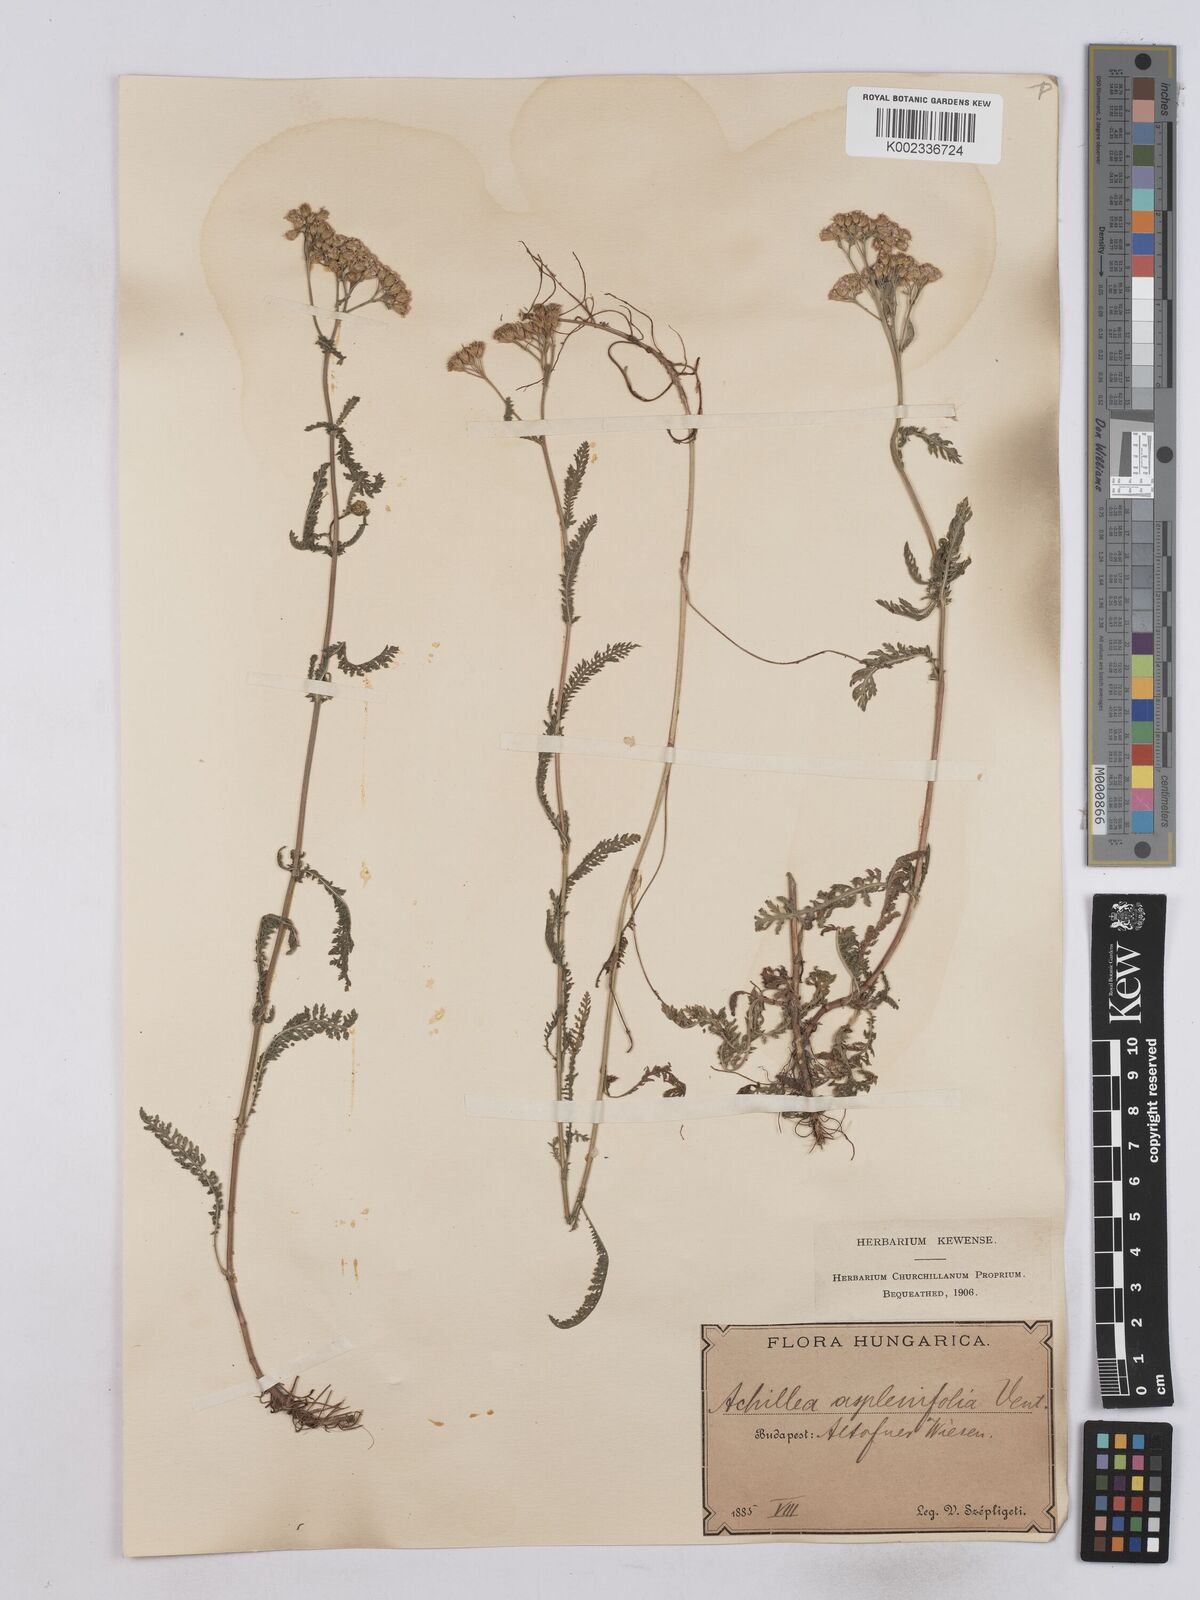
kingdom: Plantae
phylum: Tracheophyta
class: Magnoliopsida
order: Asterales
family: Asteraceae
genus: Achillea
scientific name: Achillea aspleniifolia
